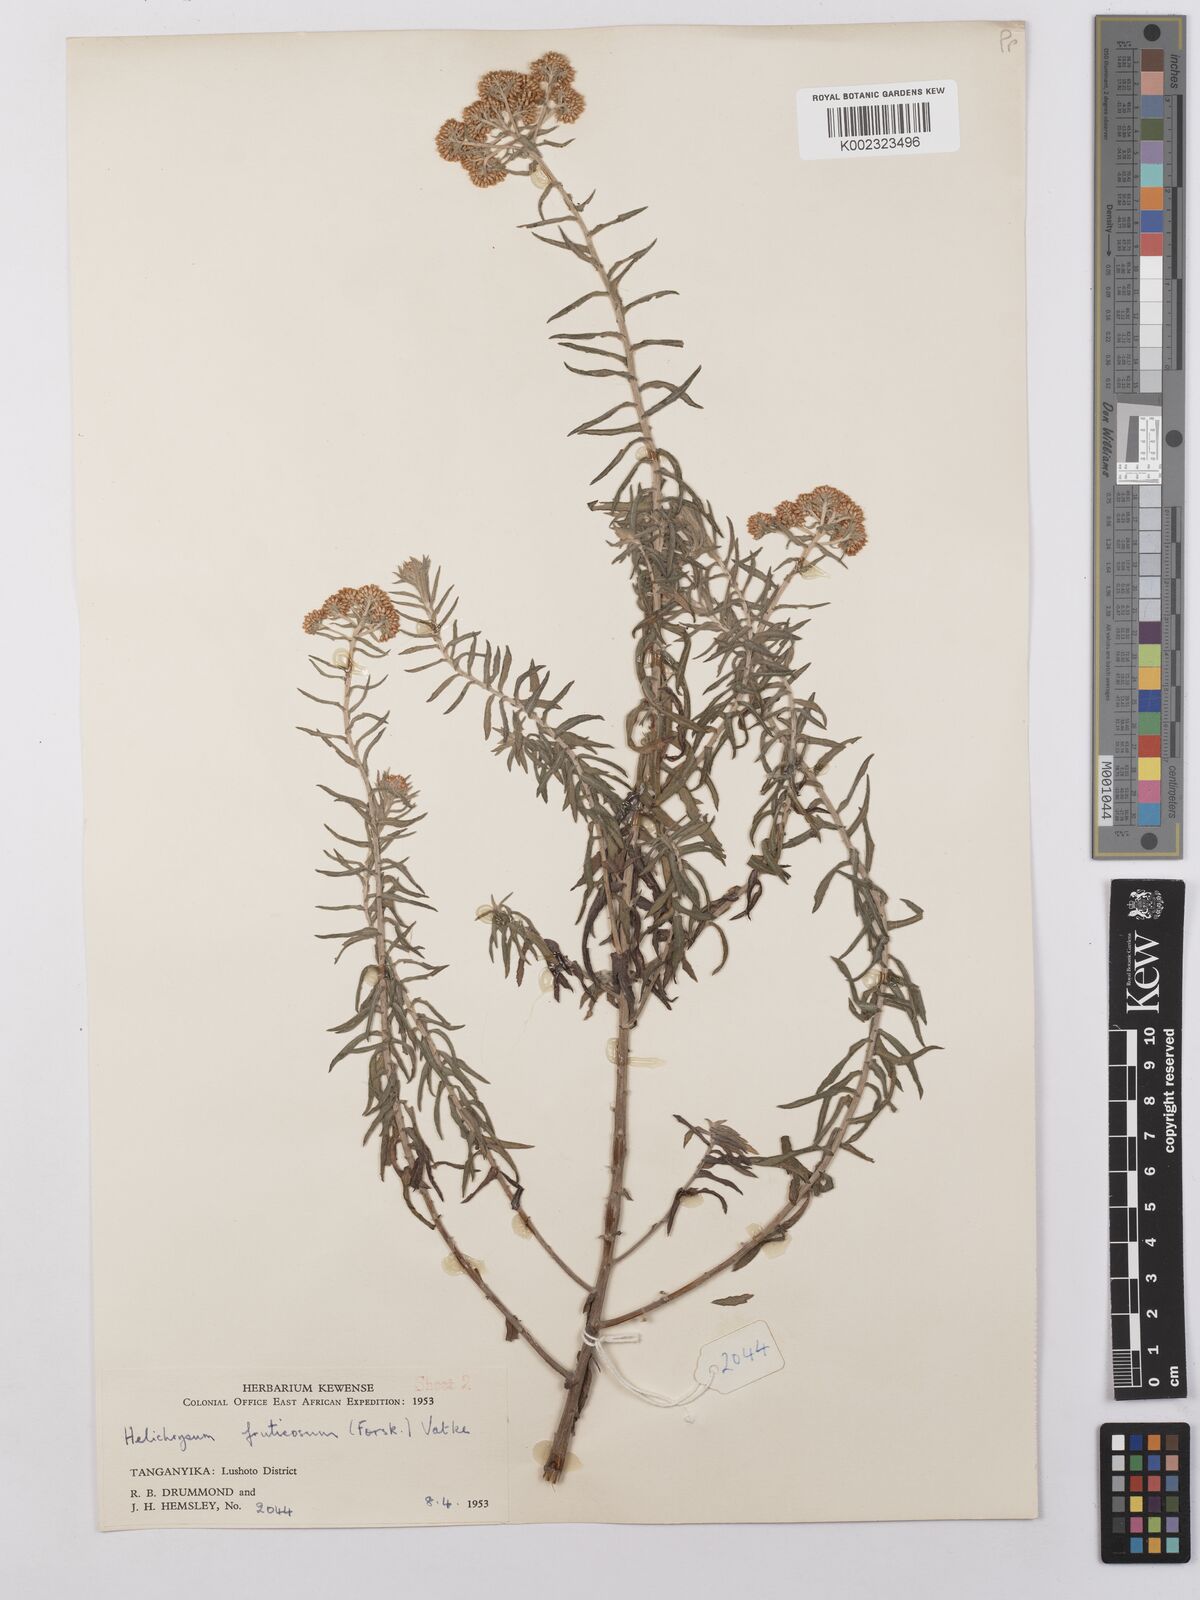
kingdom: Plantae
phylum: Tracheophyta
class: Magnoliopsida
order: Asterales
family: Asteraceae
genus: Helichrysum
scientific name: Helichrysum forskahlii
